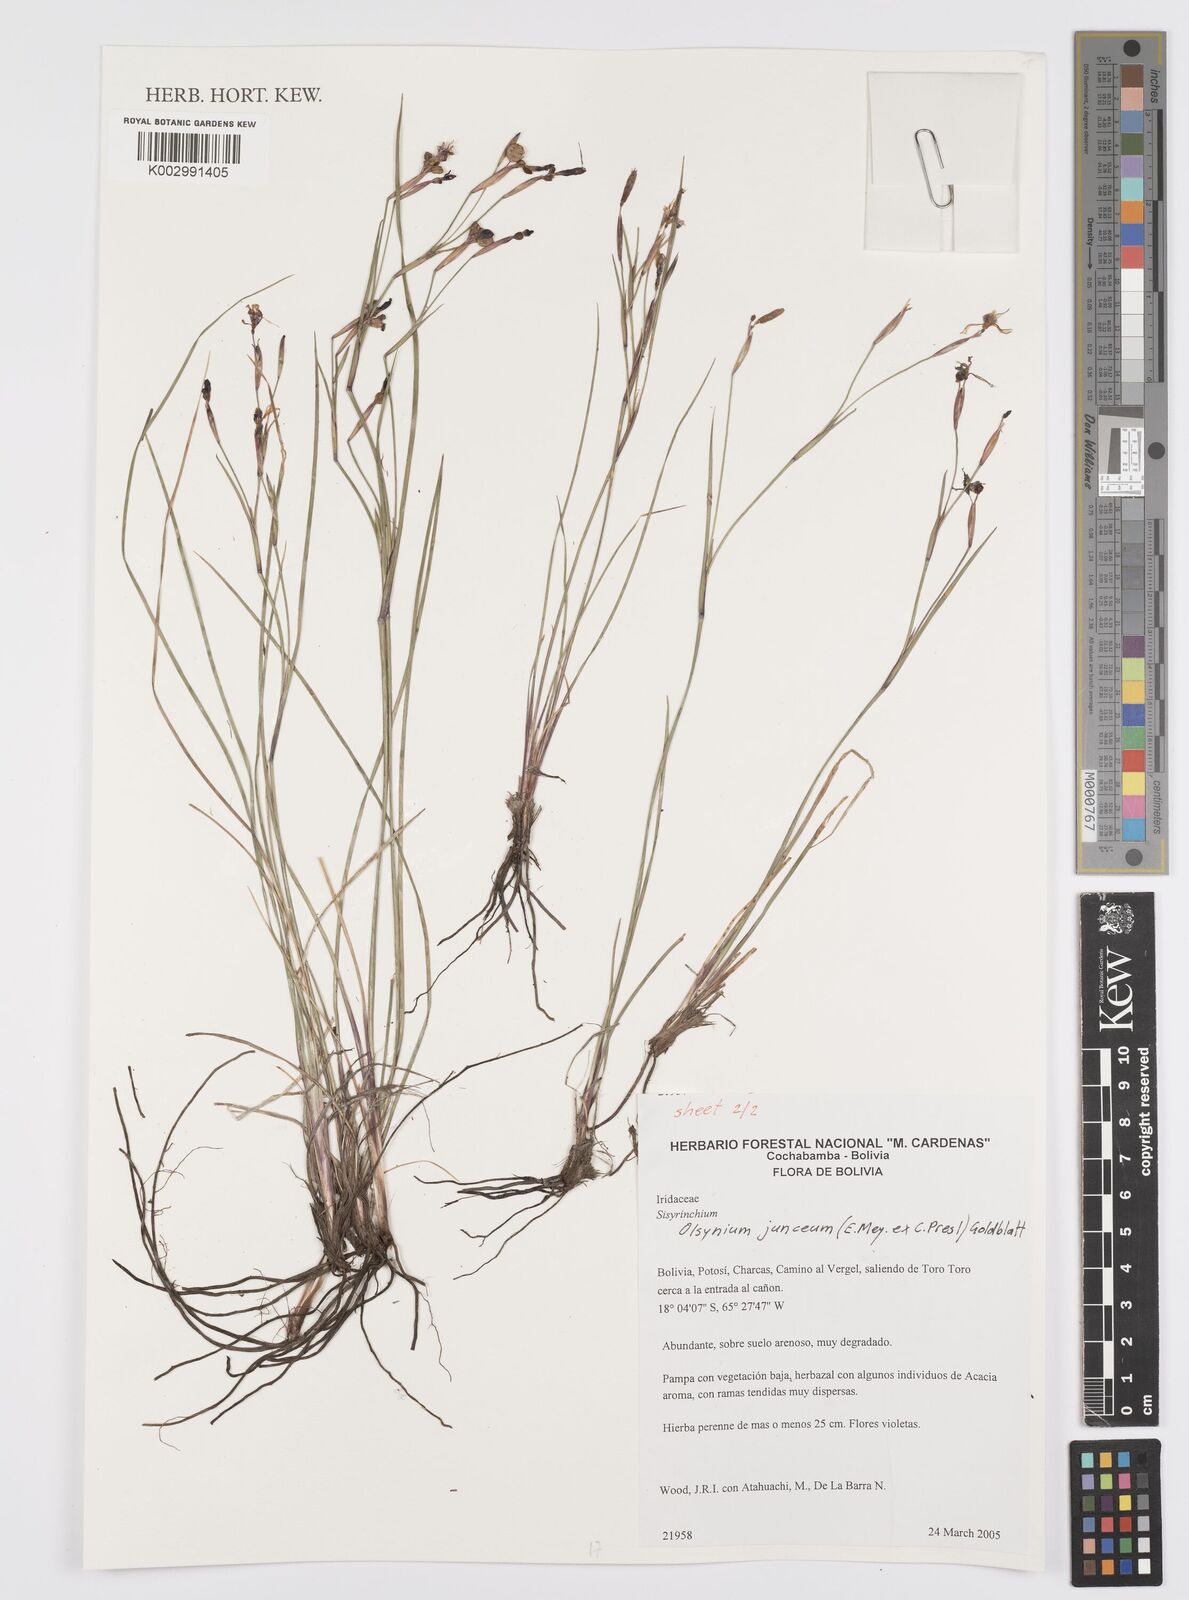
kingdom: Plantae
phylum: Tracheophyta
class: Liliopsida
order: Asparagales
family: Iridaceae
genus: Olsynium
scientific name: Olsynium junceum
